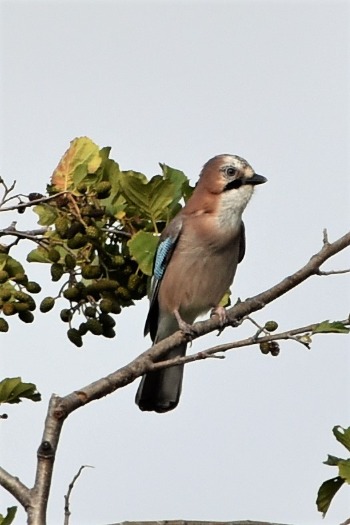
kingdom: Animalia
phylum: Chordata
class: Aves
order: Passeriformes
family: Corvidae
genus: Garrulus
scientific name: Garrulus glandarius
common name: Skovskade
